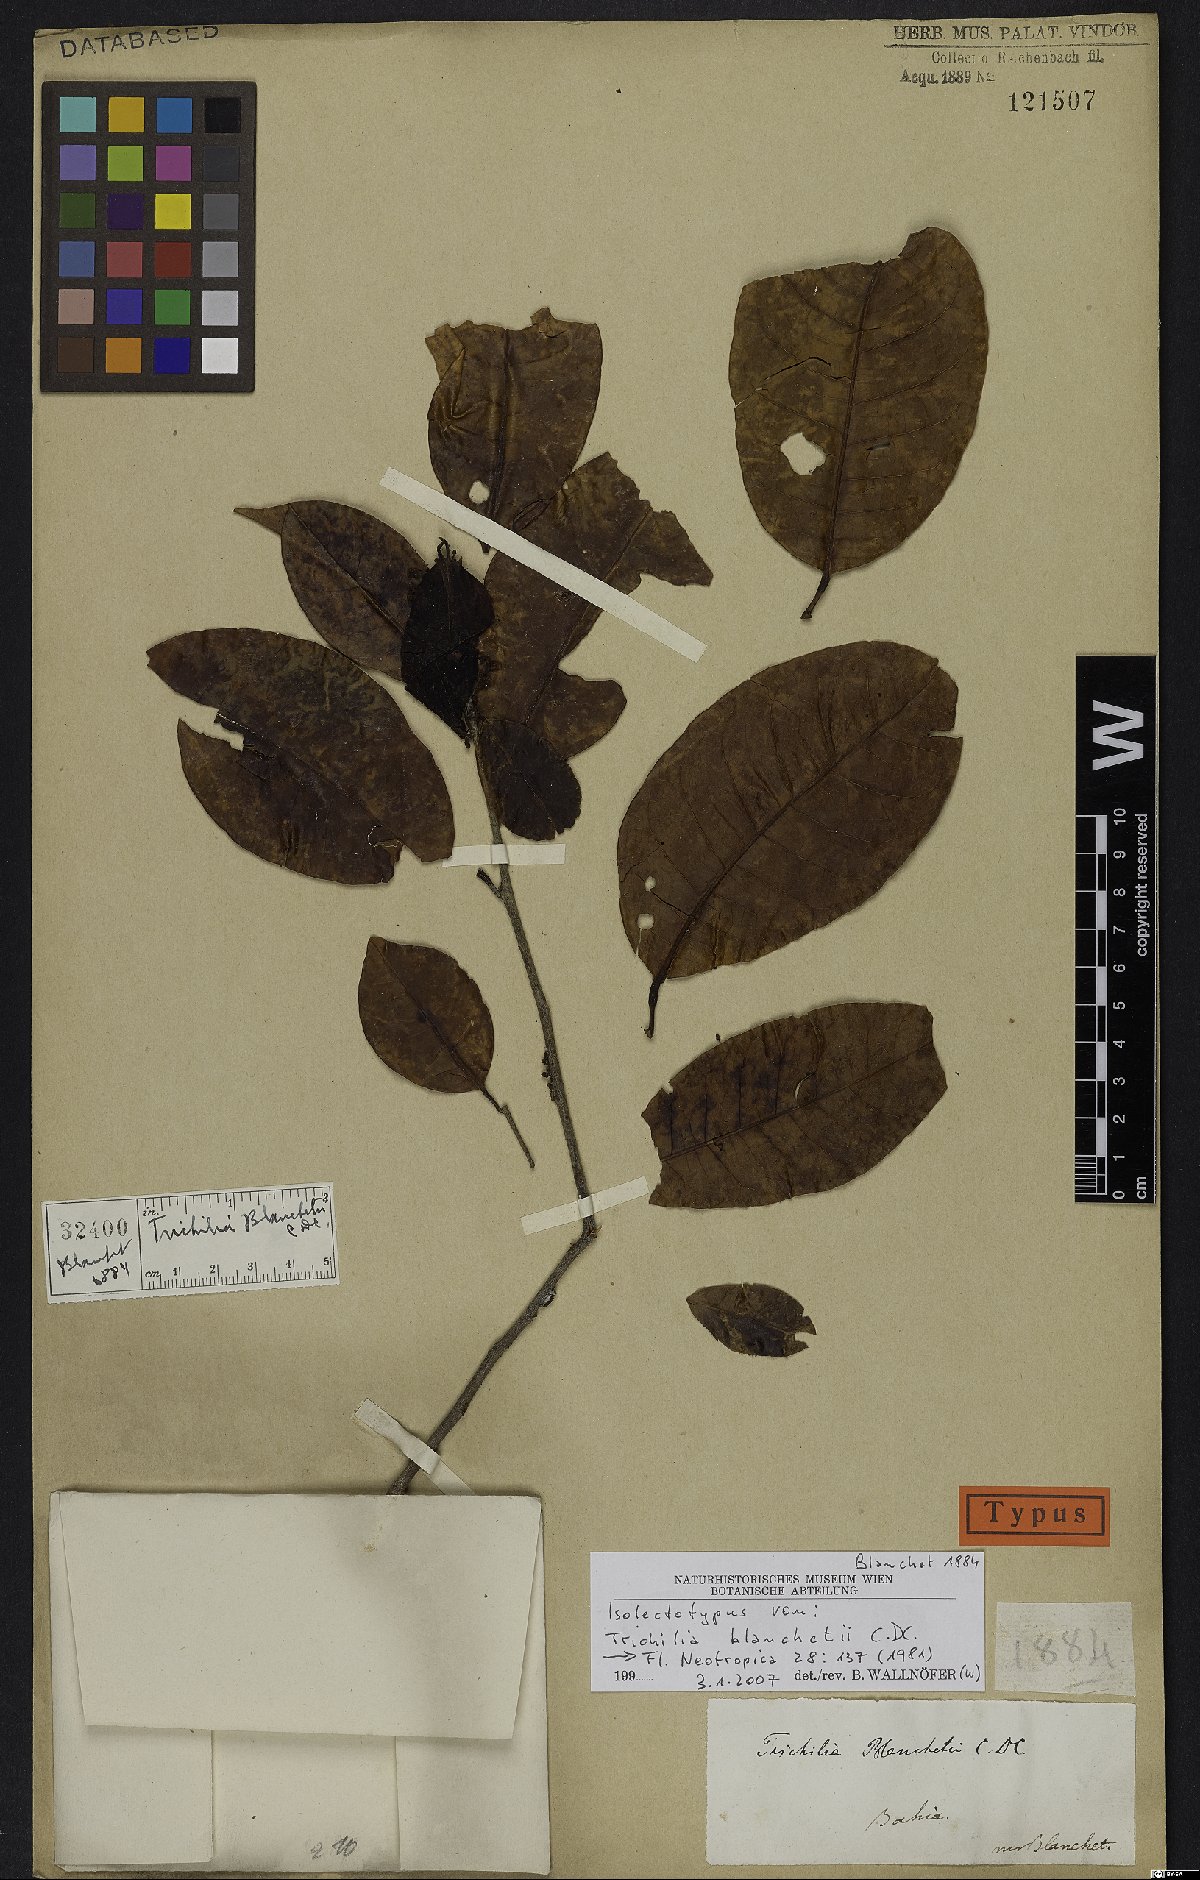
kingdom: Plantae
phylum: Tracheophyta
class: Magnoliopsida
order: Sapindales
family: Meliaceae
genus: Trichilia
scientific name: Trichilia blanchetii
